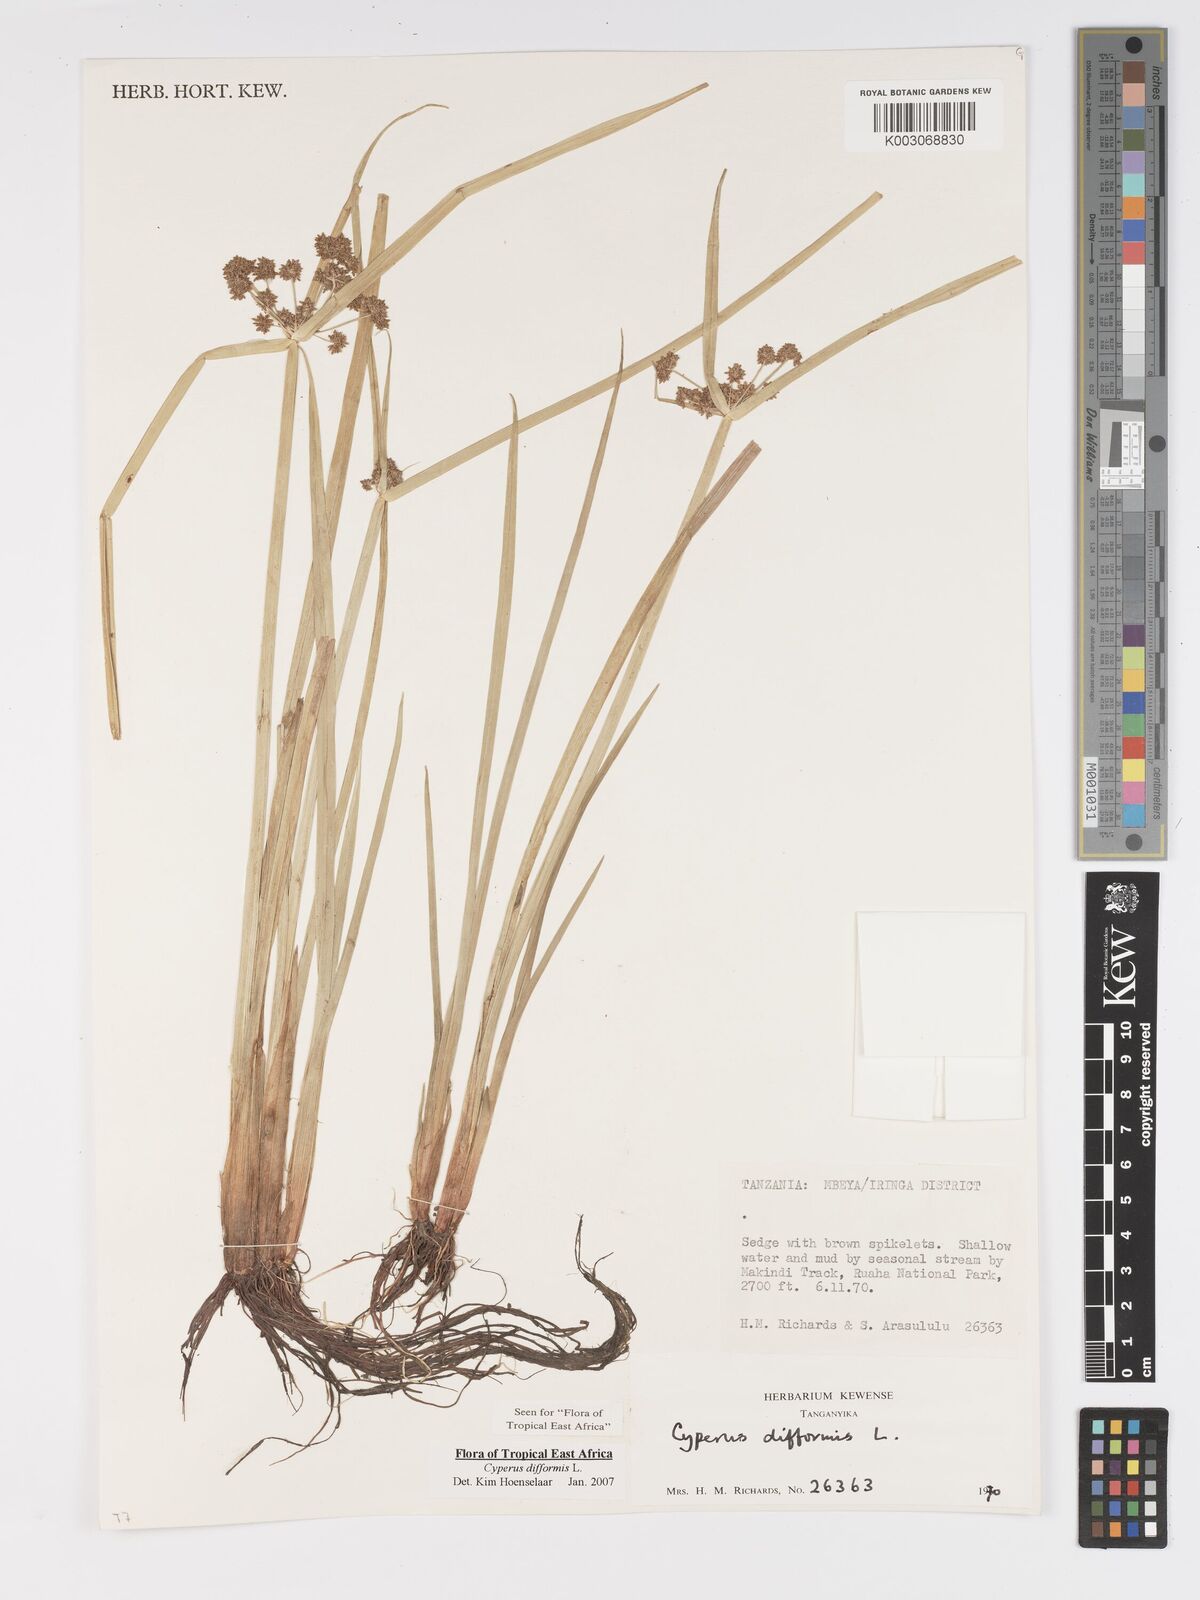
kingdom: Plantae
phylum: Tracheophyta
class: Liliopsida
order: Poales
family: Cyperaceae
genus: Cyperus
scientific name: Cyperus difformis
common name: Variable flatsedge
